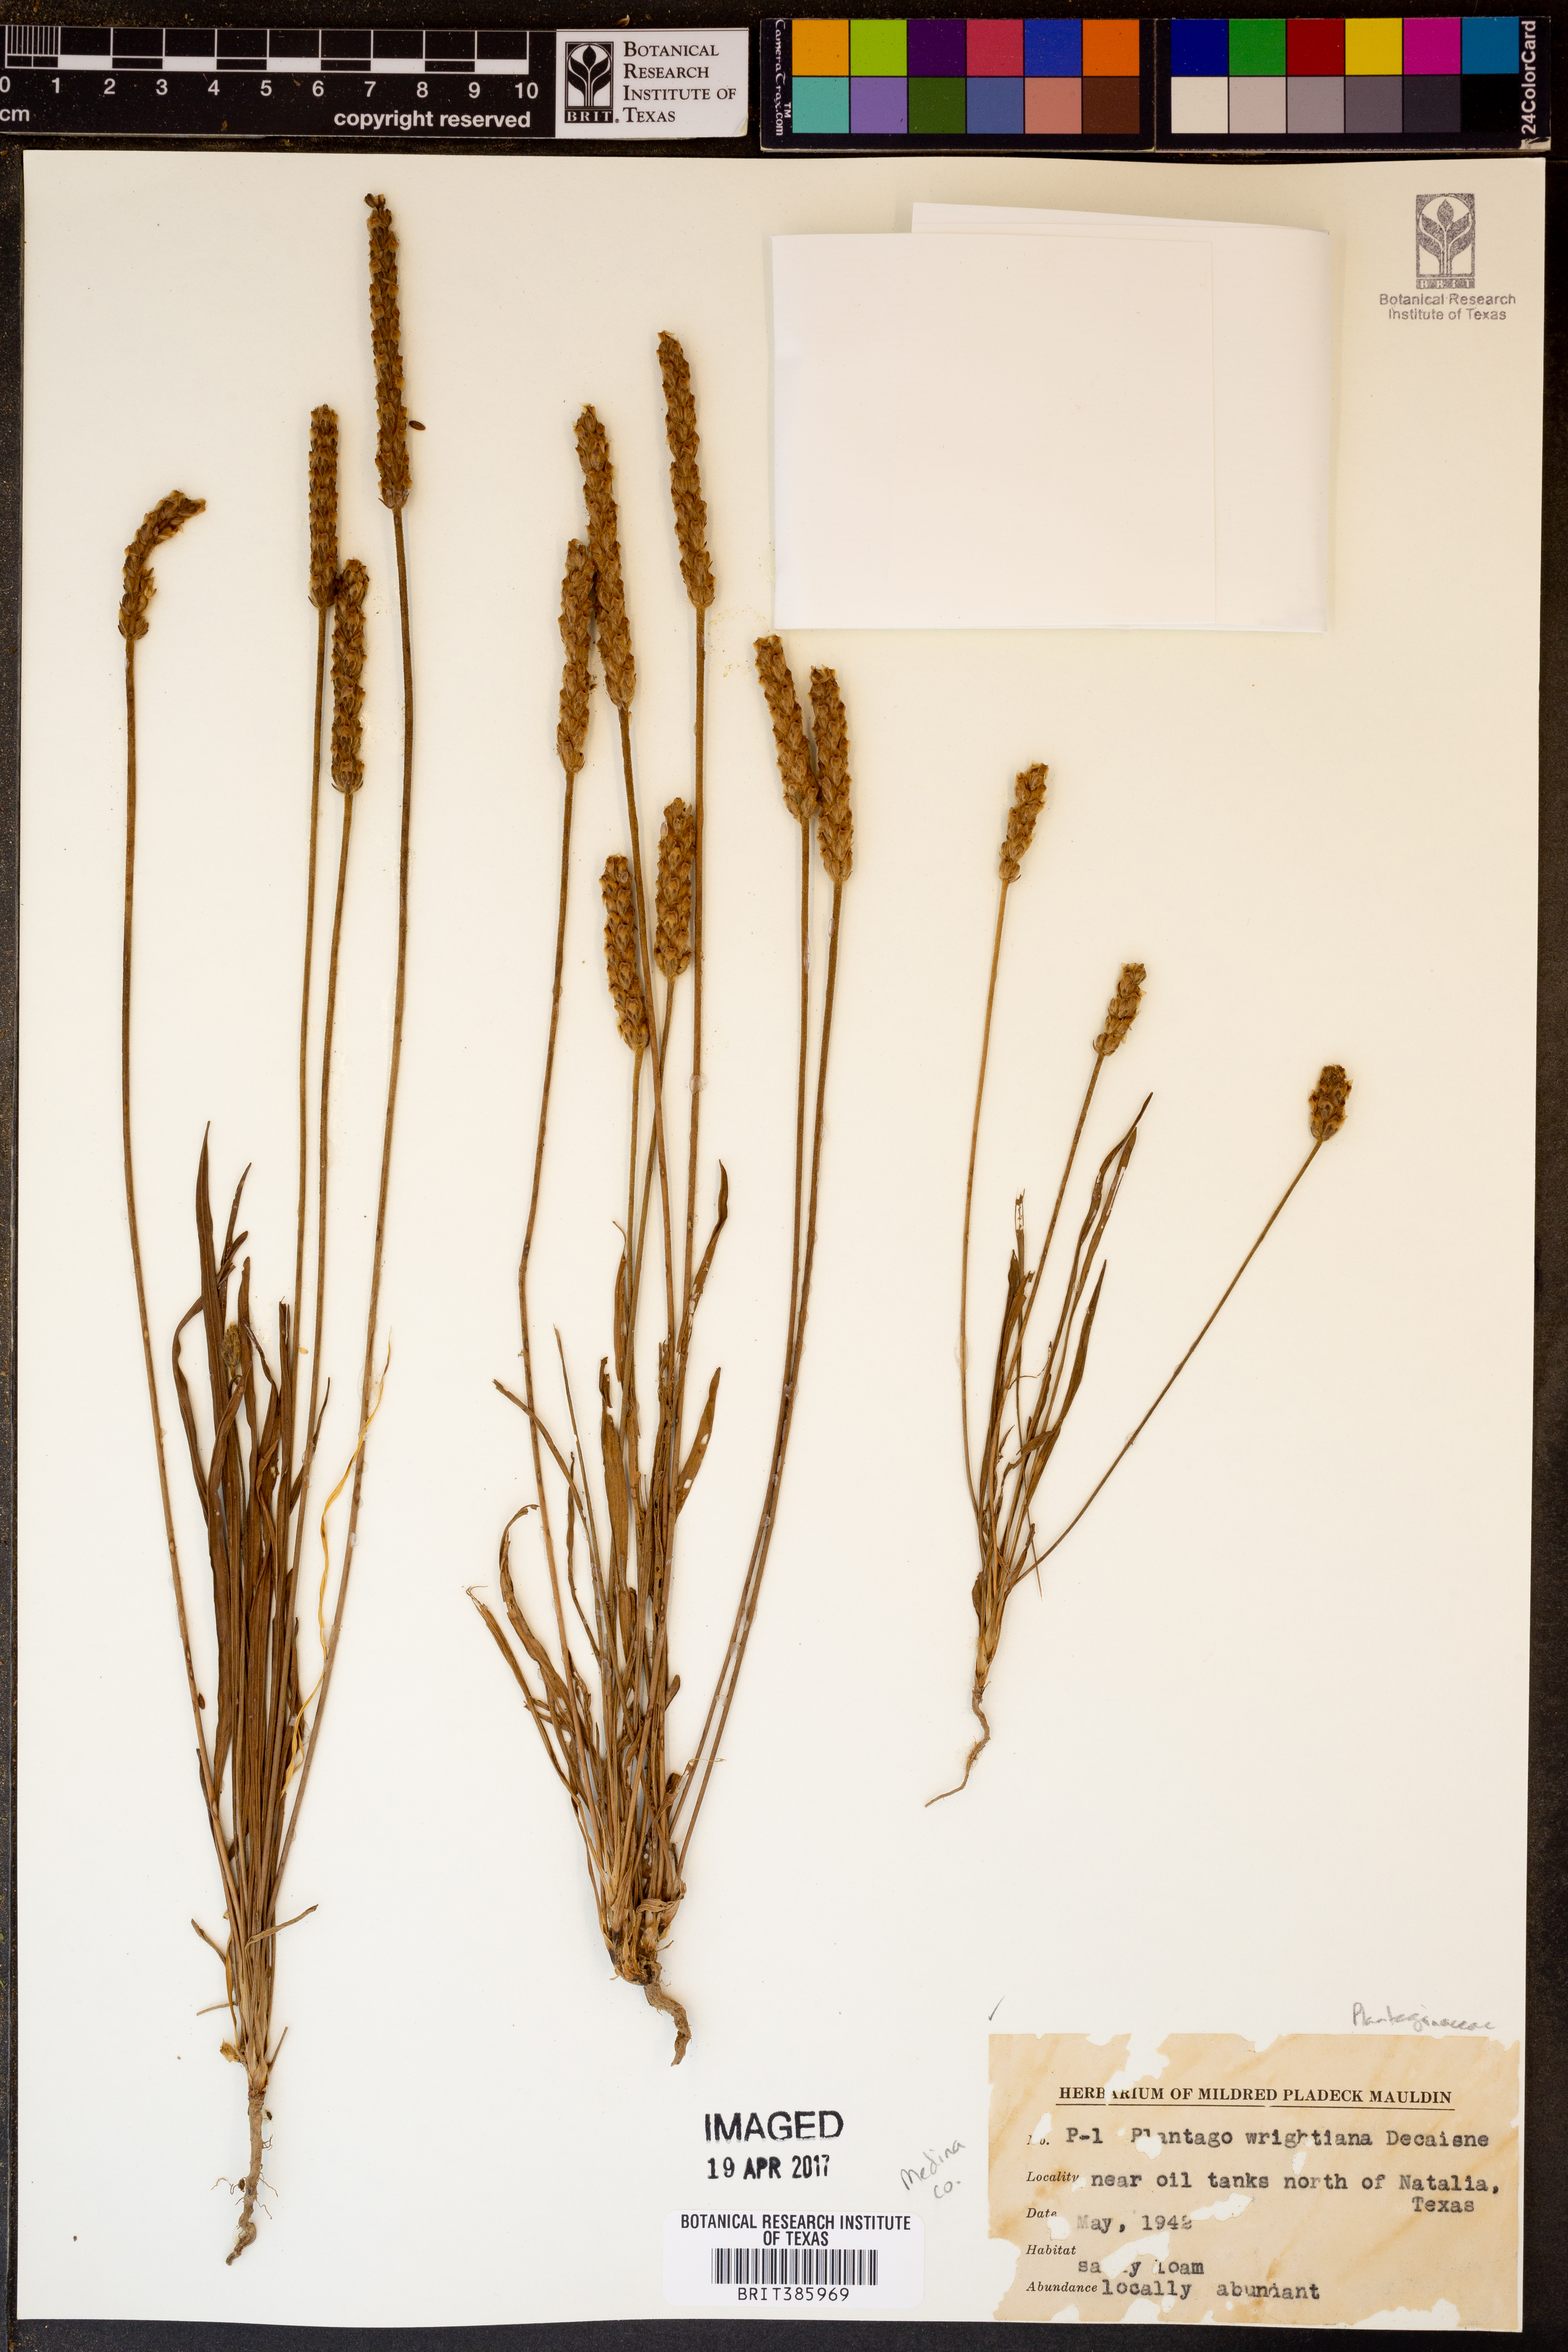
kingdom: Plantae
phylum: Tracheophyta
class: Magnoliopsida
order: Lamiales
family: Plantaginaceae
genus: Plantago
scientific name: Plantago wrightiana
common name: Wright's plantain
